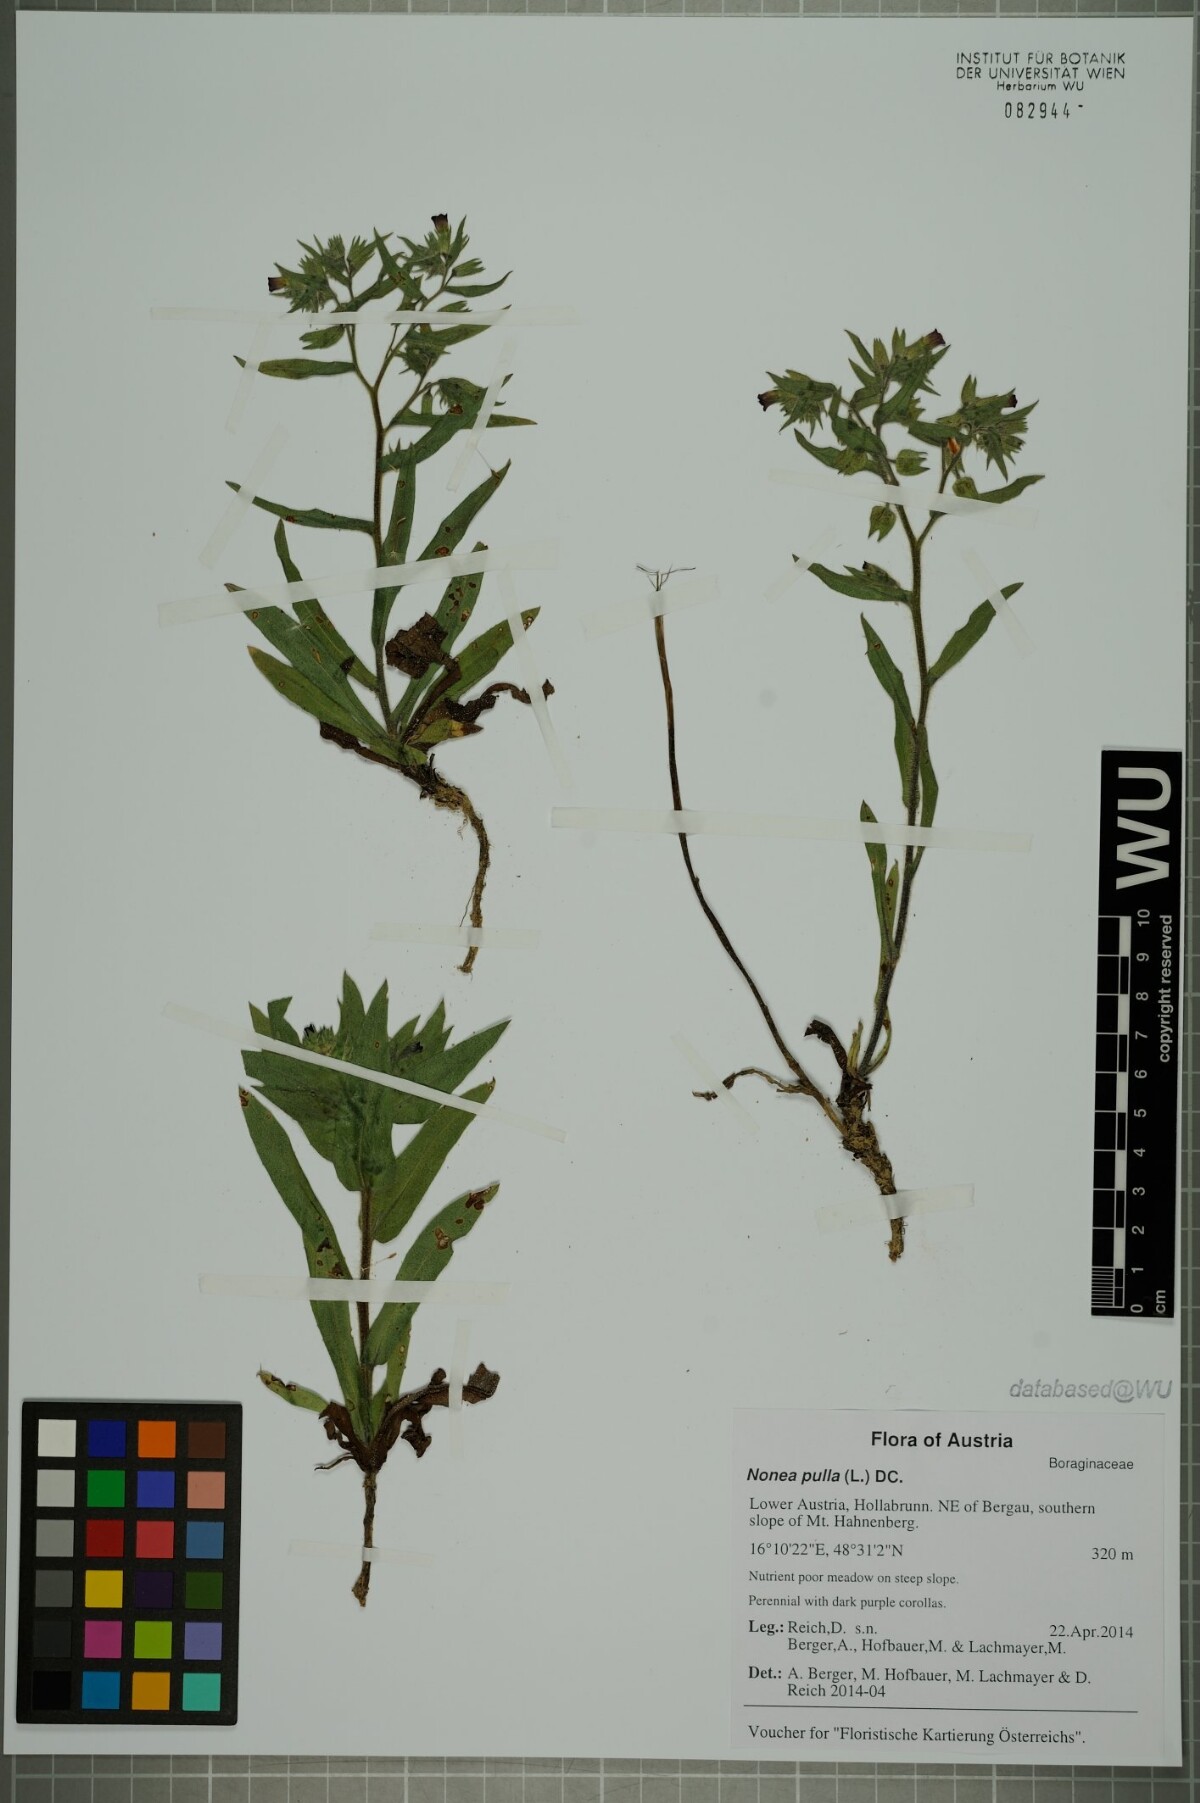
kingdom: Plantae
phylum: Tracheophyta
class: Magnoliopsida
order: Boraginales
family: Boraginaceae
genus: Nonea
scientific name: Nonea pulla
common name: Brown nonea
